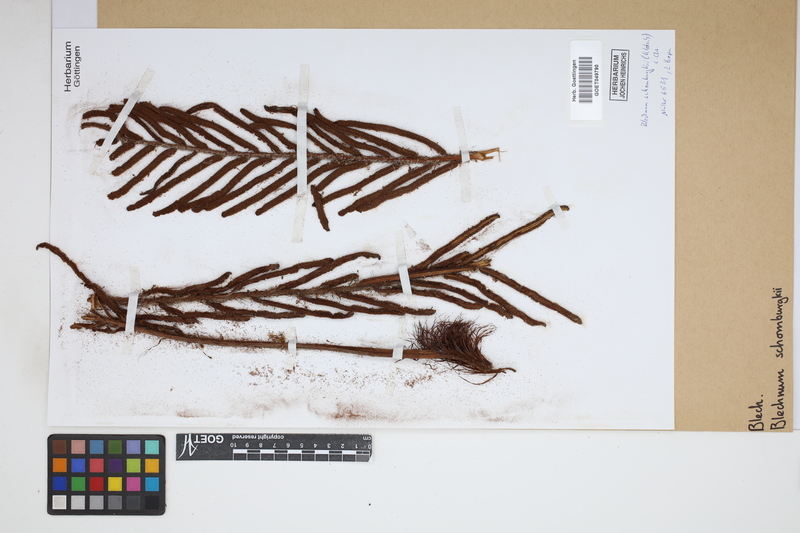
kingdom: Plantae
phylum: Tracheophyta
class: Polypodiopsida
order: Polypodiales
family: Blechnaceae
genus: Lomariocycas
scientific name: Lomariocycas schomburgkii
